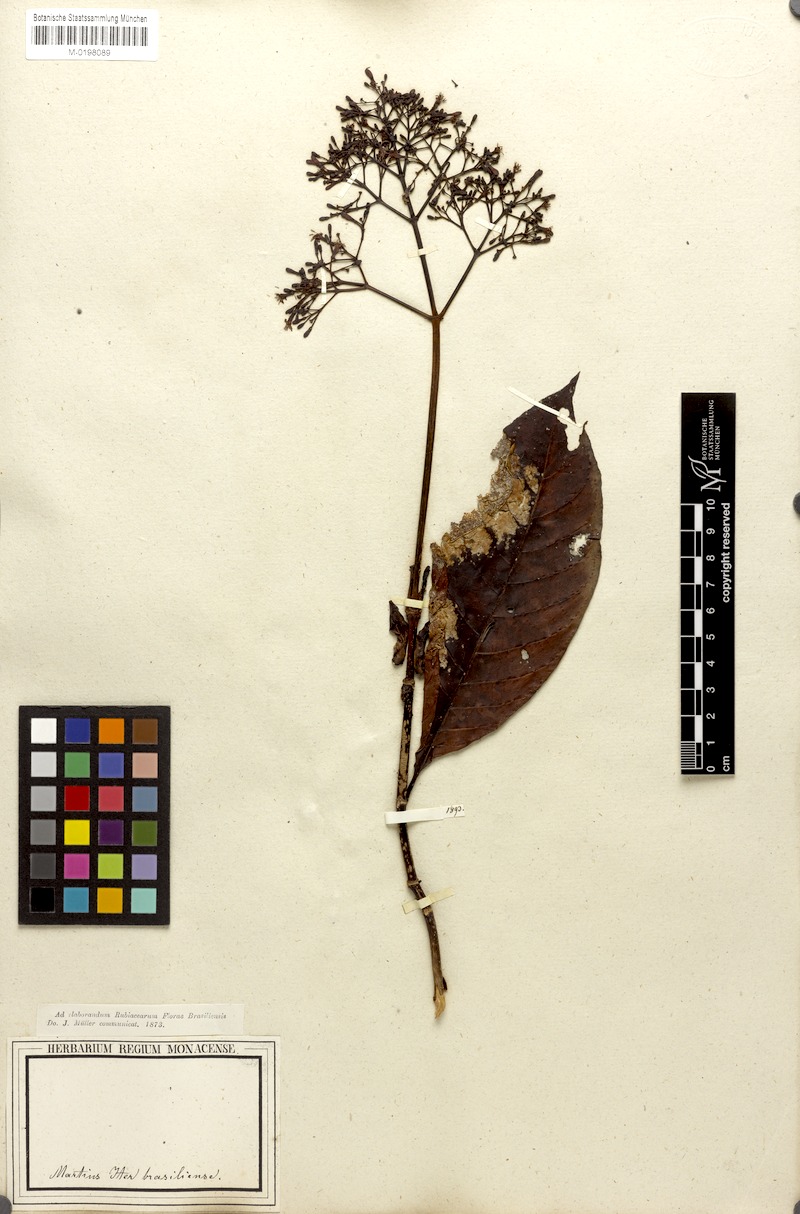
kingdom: Plantae
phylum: Tracheophyta
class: Magnoliopsida
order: Gentianales
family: Rubiaceae
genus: Psychotria
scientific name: Psychotria pedunculosa
